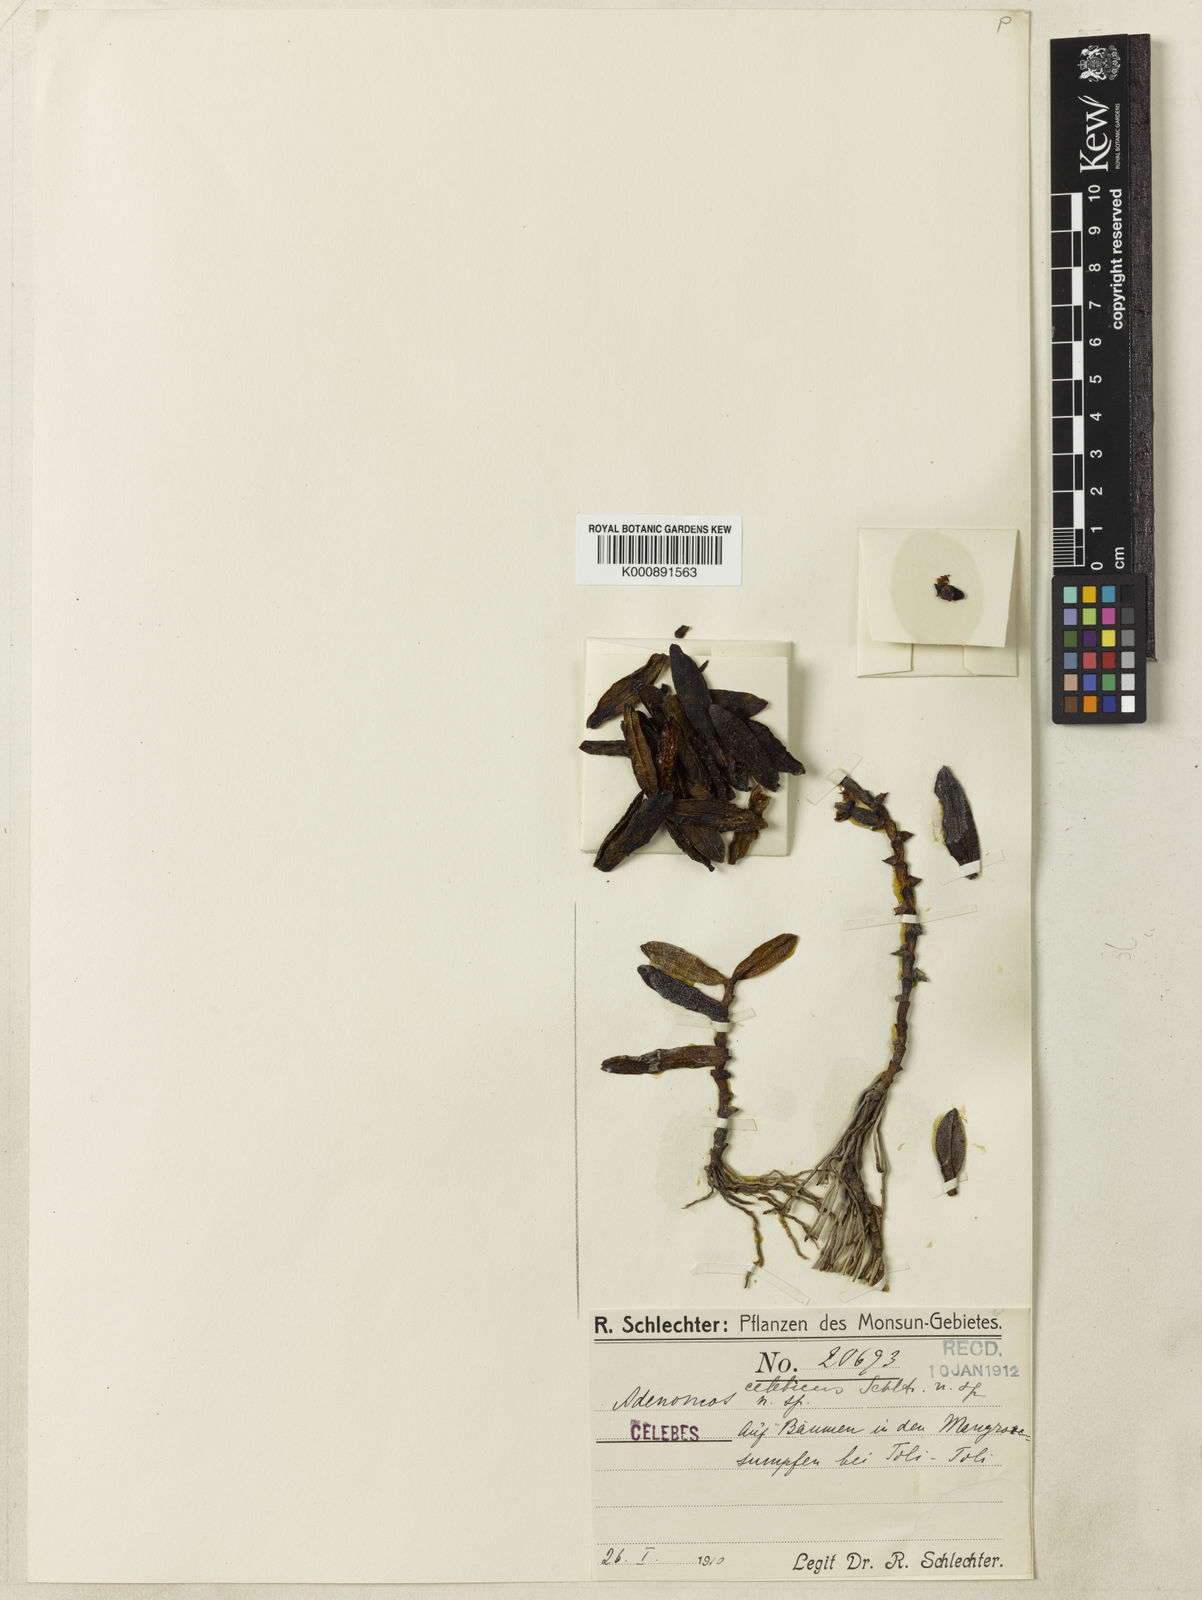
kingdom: Plantae
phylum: Tracheophyta
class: Liliopsida
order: Asparagales
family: Orchidaceae
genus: Adenoncos
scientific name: Adenoncos celebica
